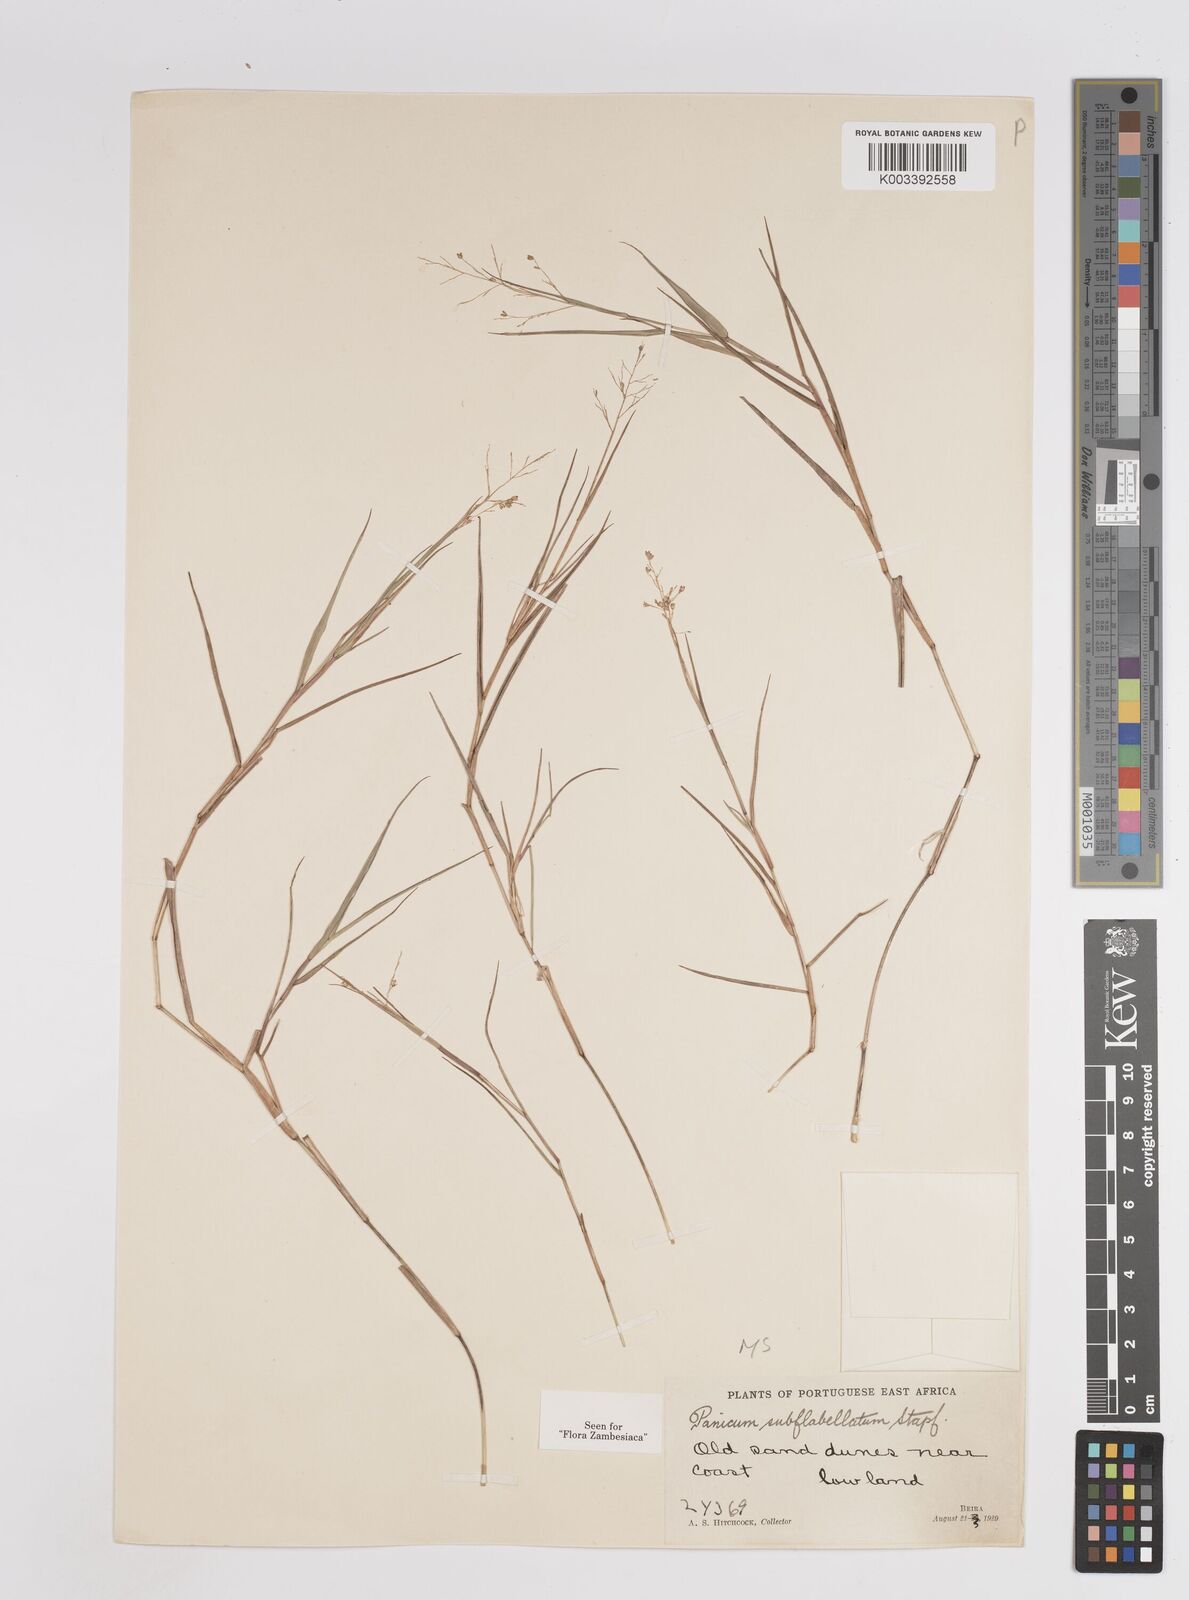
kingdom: Plantae
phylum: Tracheophyta
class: Liliopsida
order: Poales
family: Poaceae
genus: Panicum
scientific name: Panicum subflabellatum
